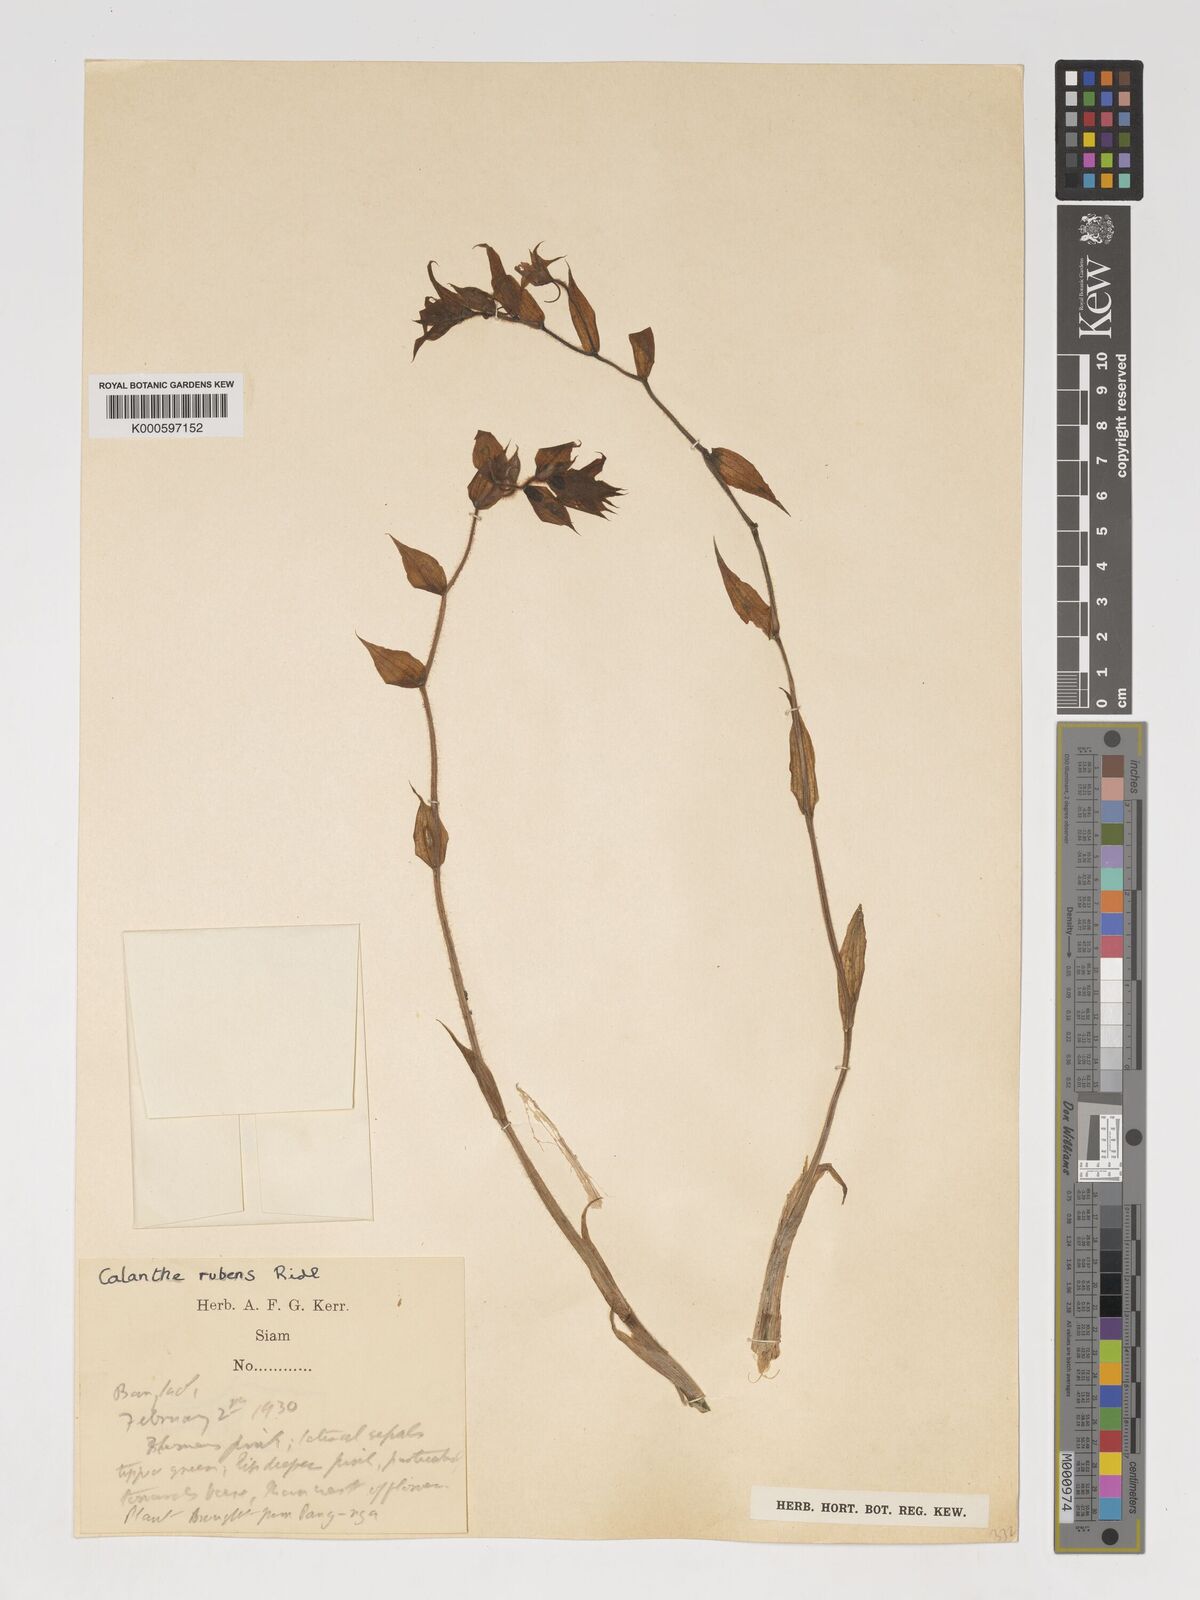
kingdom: Plantae
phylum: Tracheophyta
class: Liliopsida
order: Asparagales
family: Orchidaceae
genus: Calanthe
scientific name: Calanthe rubens
